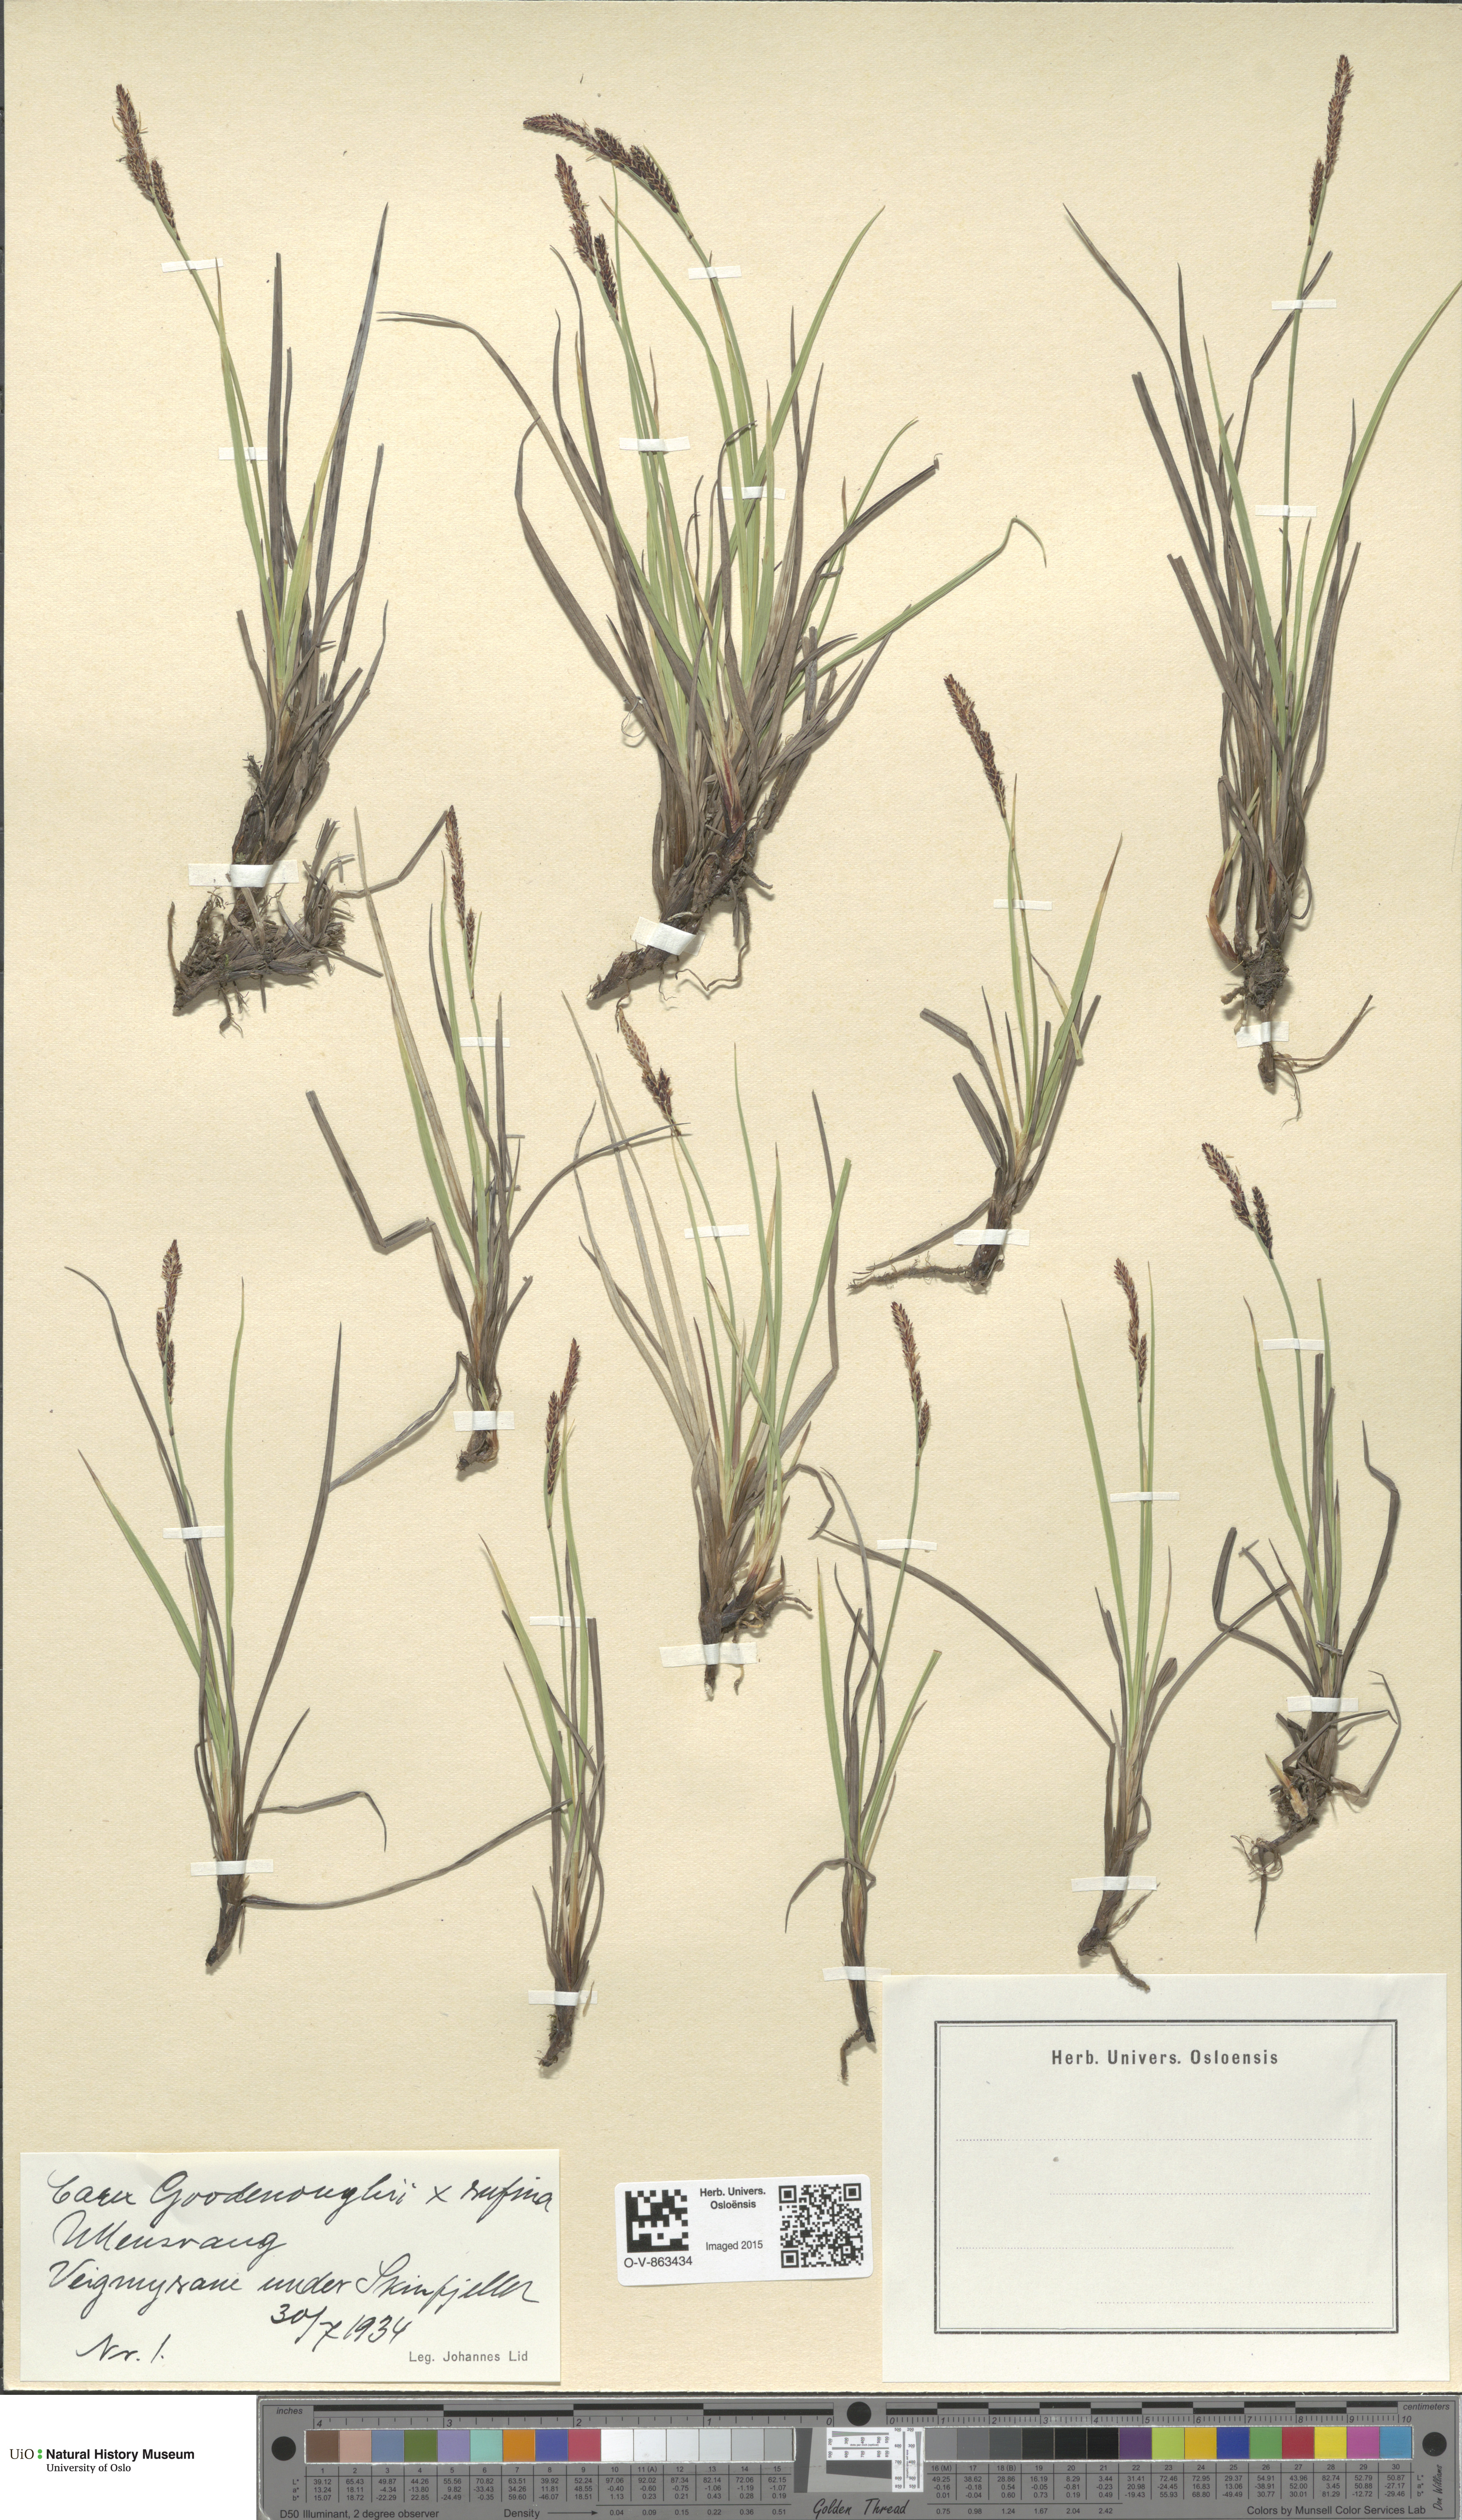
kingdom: Plantae
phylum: Tracheophyta
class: Liliopsida
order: Poales
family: Cyperaceae
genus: Carex
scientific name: Carex
